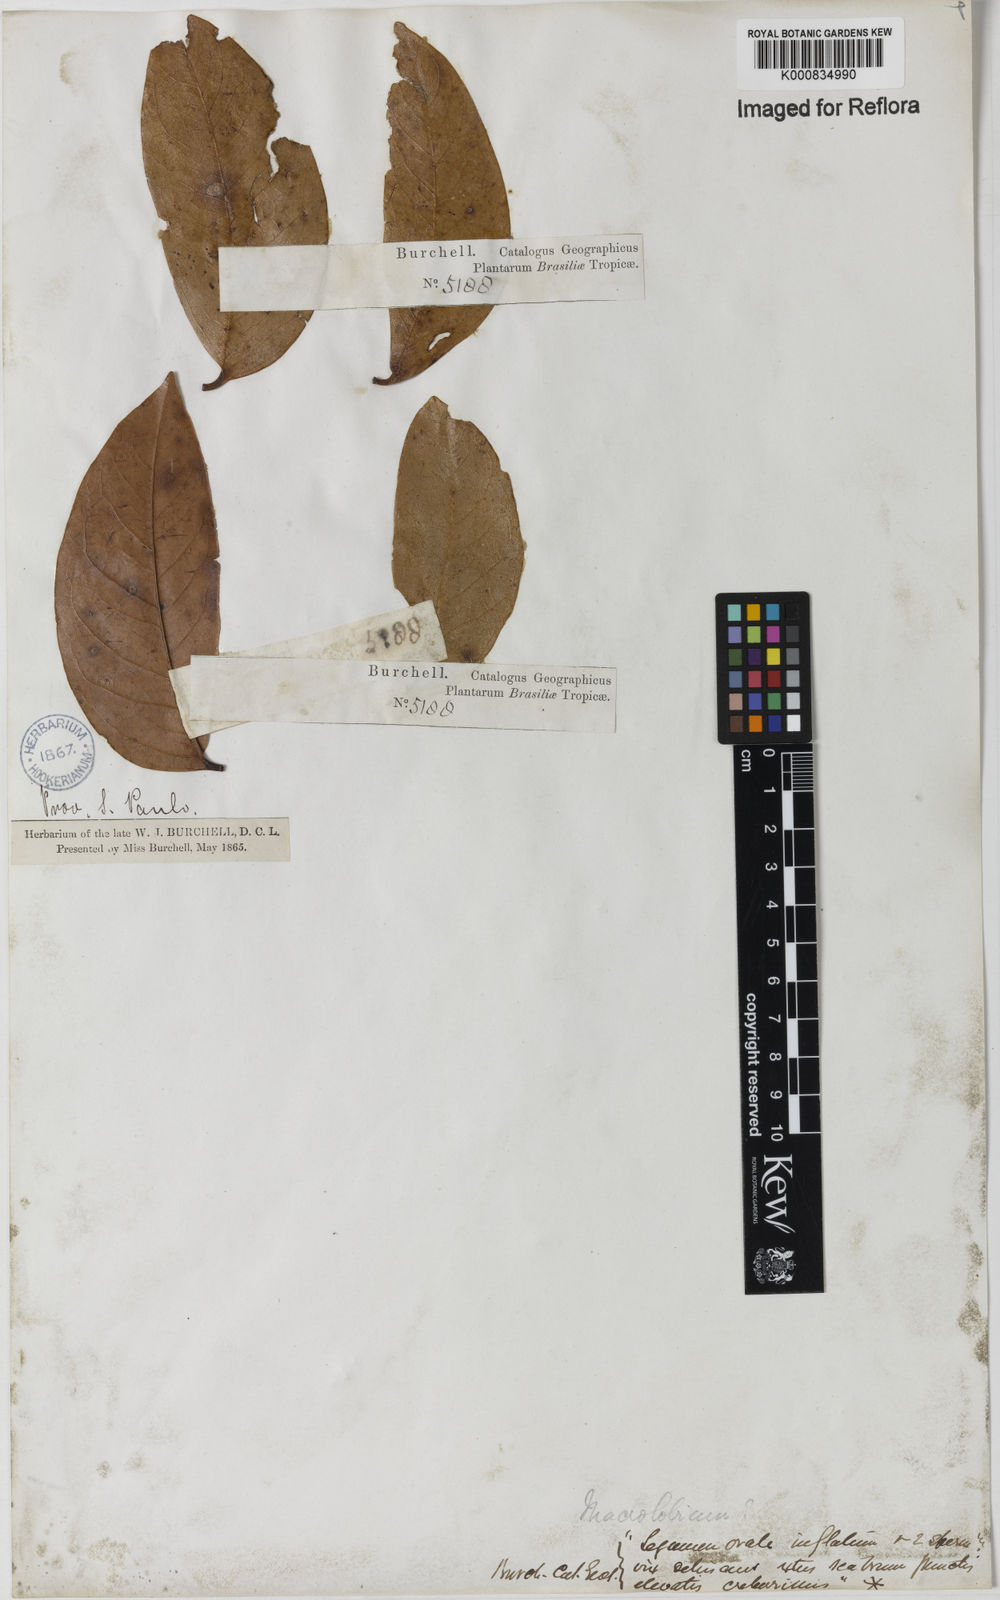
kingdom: Plantae
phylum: Tracheophyta
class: Magnoliopsida
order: Fabales
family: Fabaceae
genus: Macrolobium
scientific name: Macrolobium
